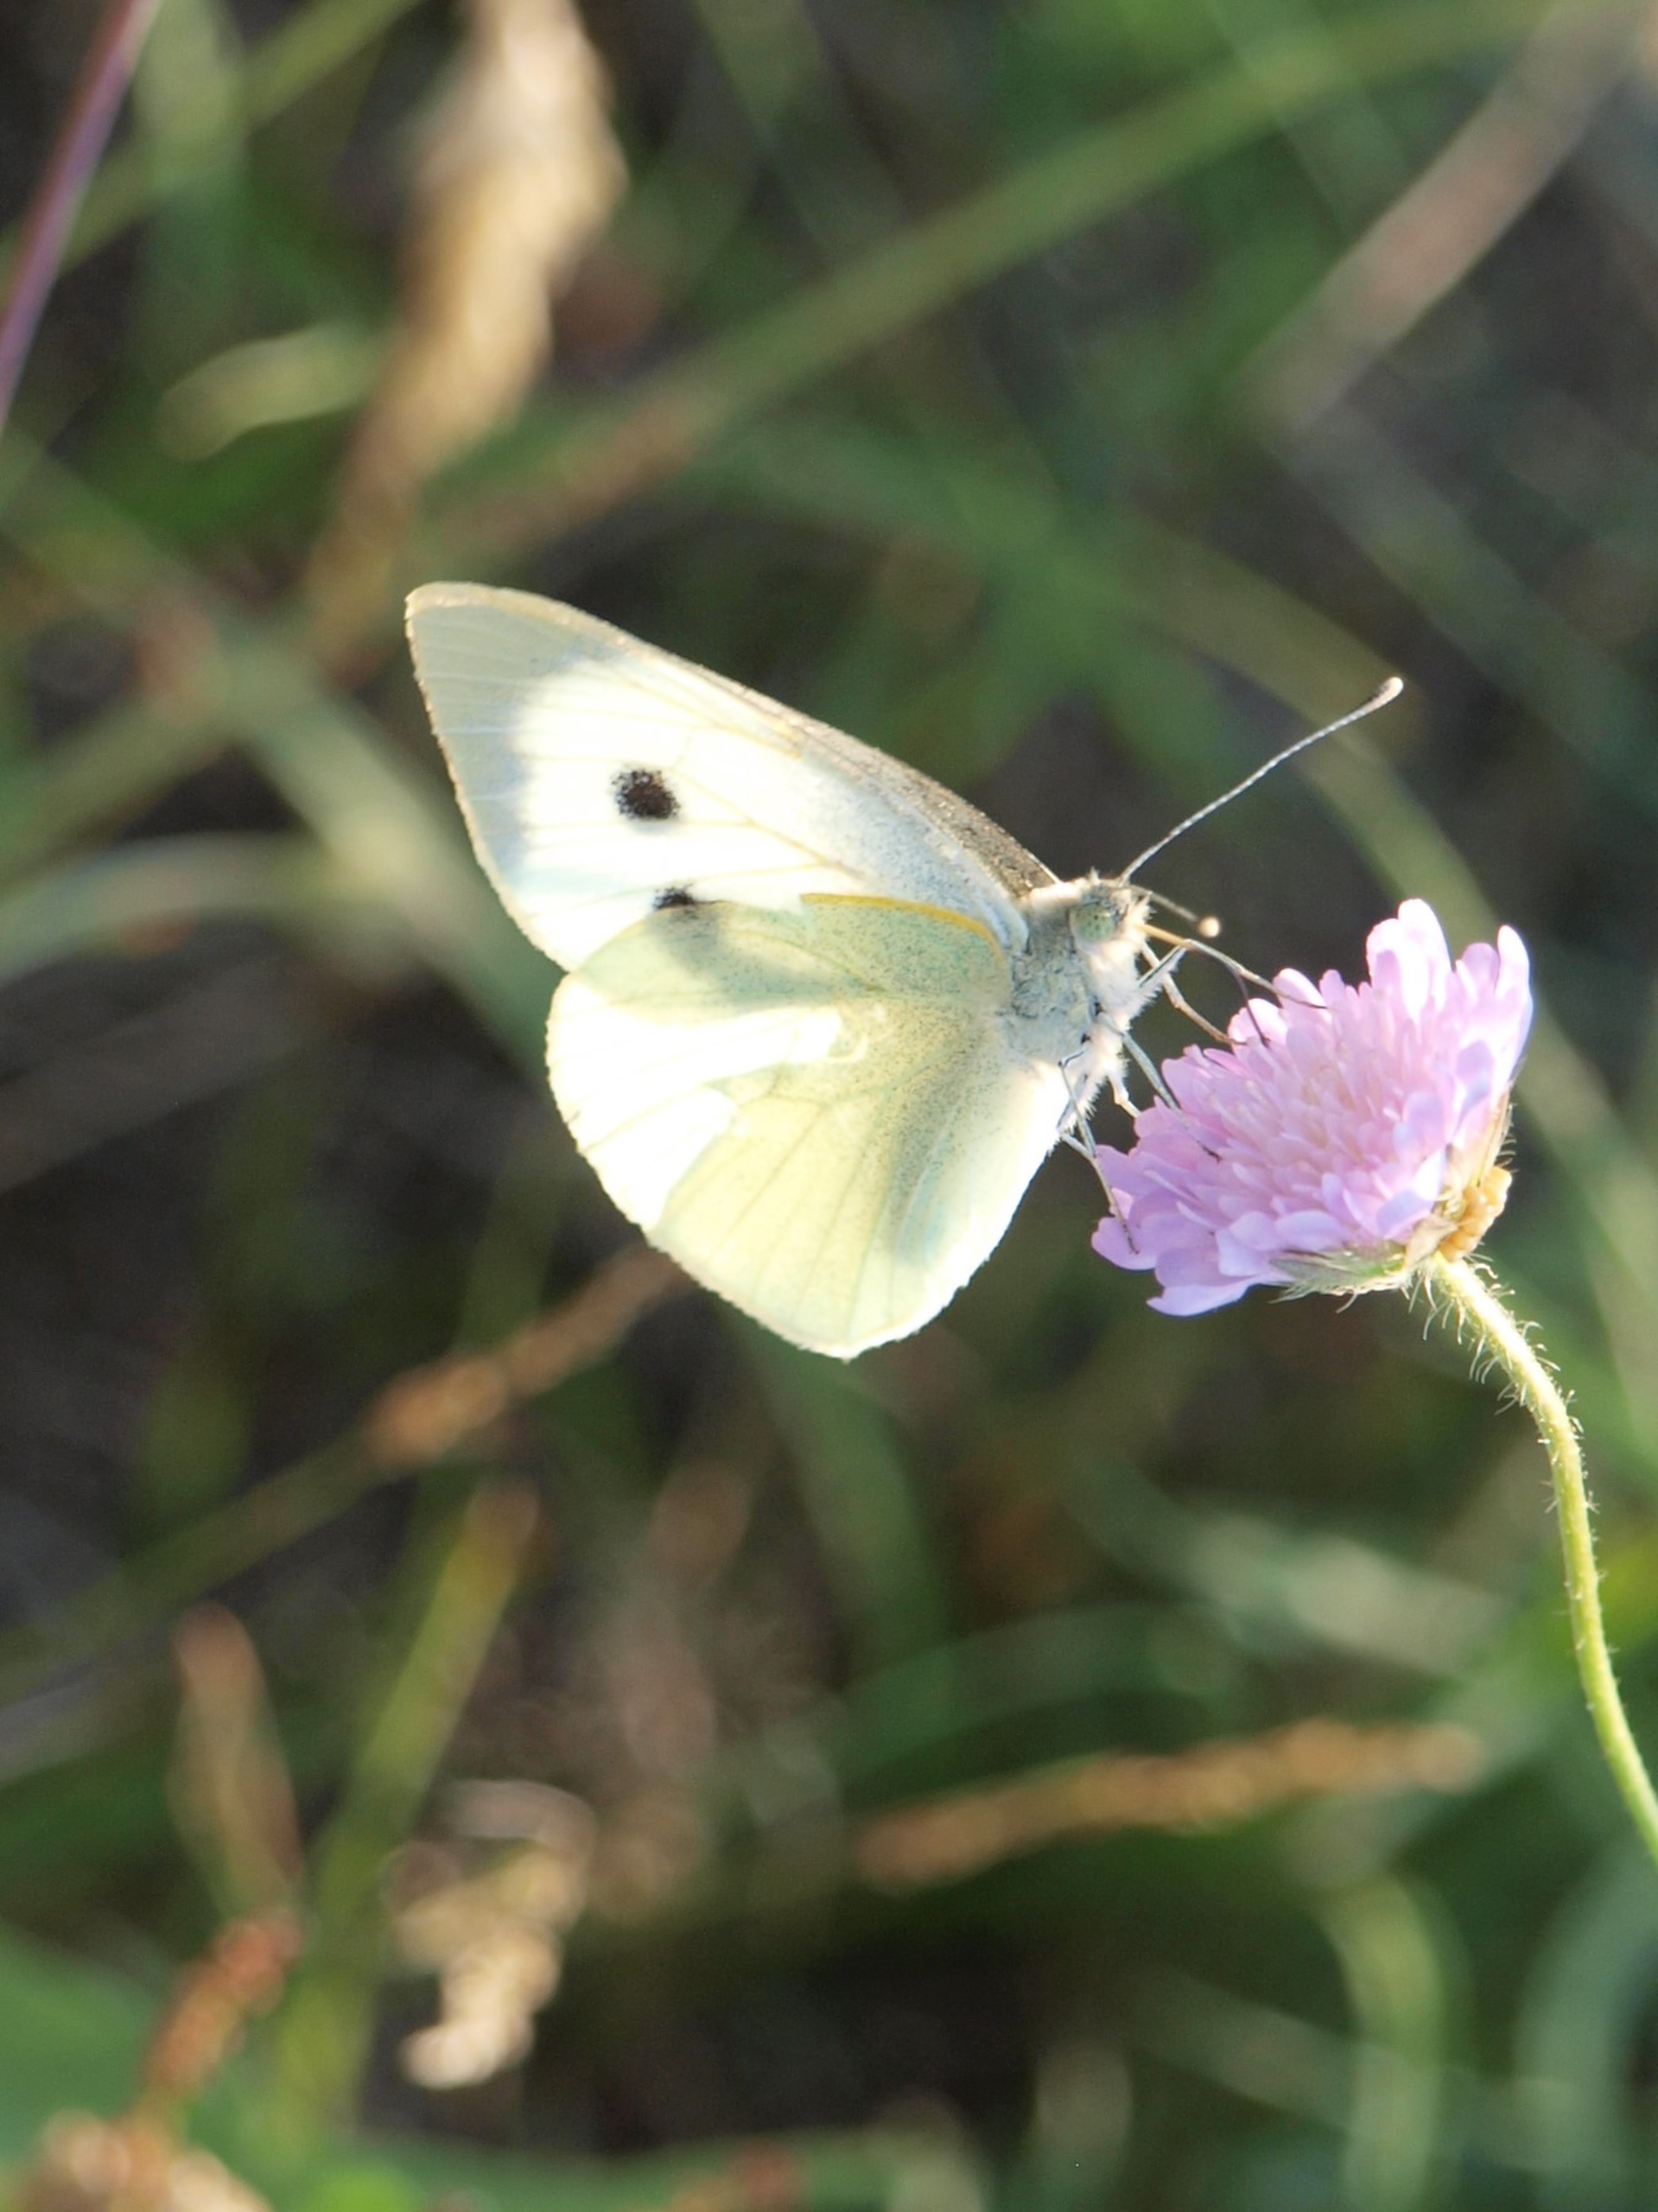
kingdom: Animalia
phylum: Arthropoda
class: Insecta
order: Lepidoptera
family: Pieridae
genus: Pieris
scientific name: Pieris brassicae
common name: Stor kålsommerfugl
